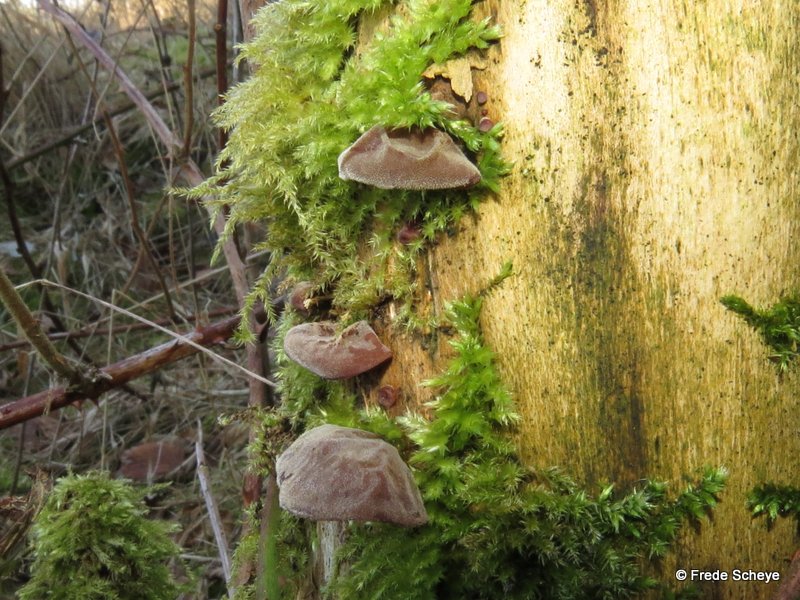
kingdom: Fungi
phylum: Basidiomycota
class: Agaricomycetes
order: Auriculariales
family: Auriculariaceae
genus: Auricularia
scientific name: Auricularia auricula-judae
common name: almindelig judasøre
